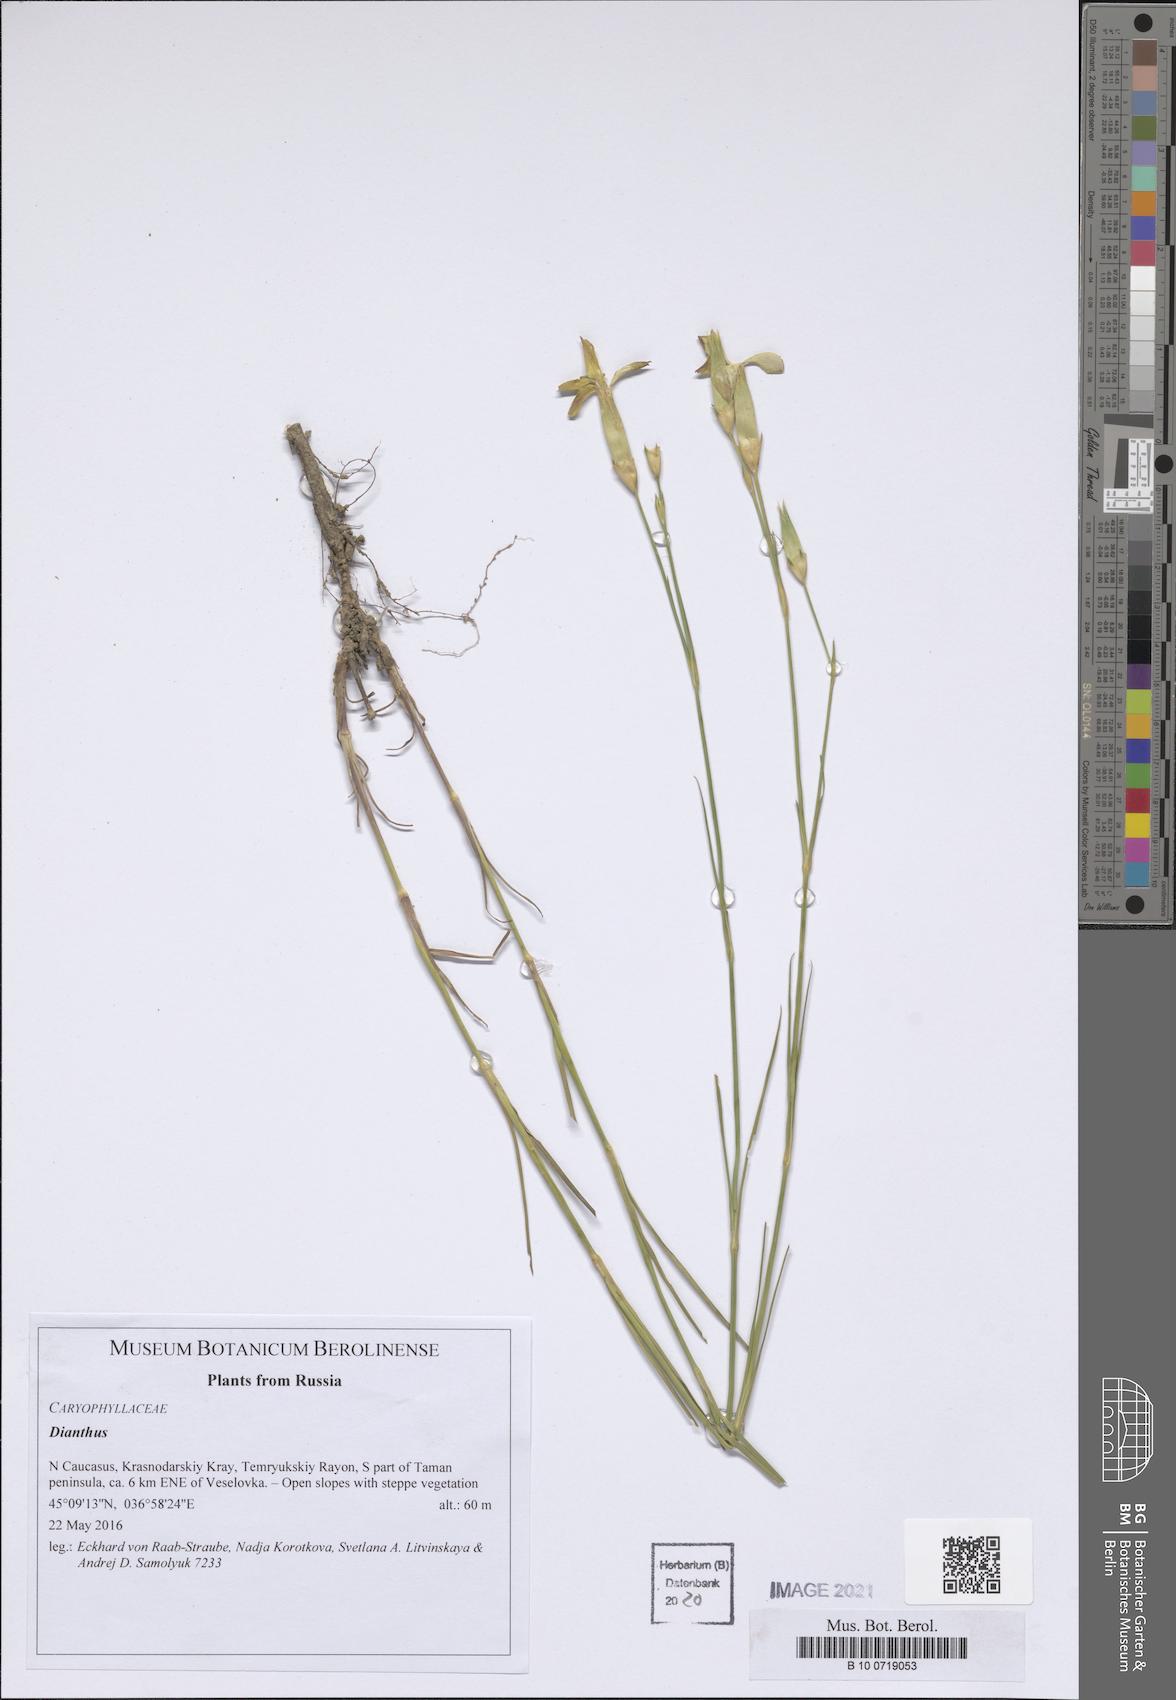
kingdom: Plantae
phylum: Tracheophyta
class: Magnoliopsida
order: Caryophyllales
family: Caryophyllaceae
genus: Dianthus
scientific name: Dianthus
